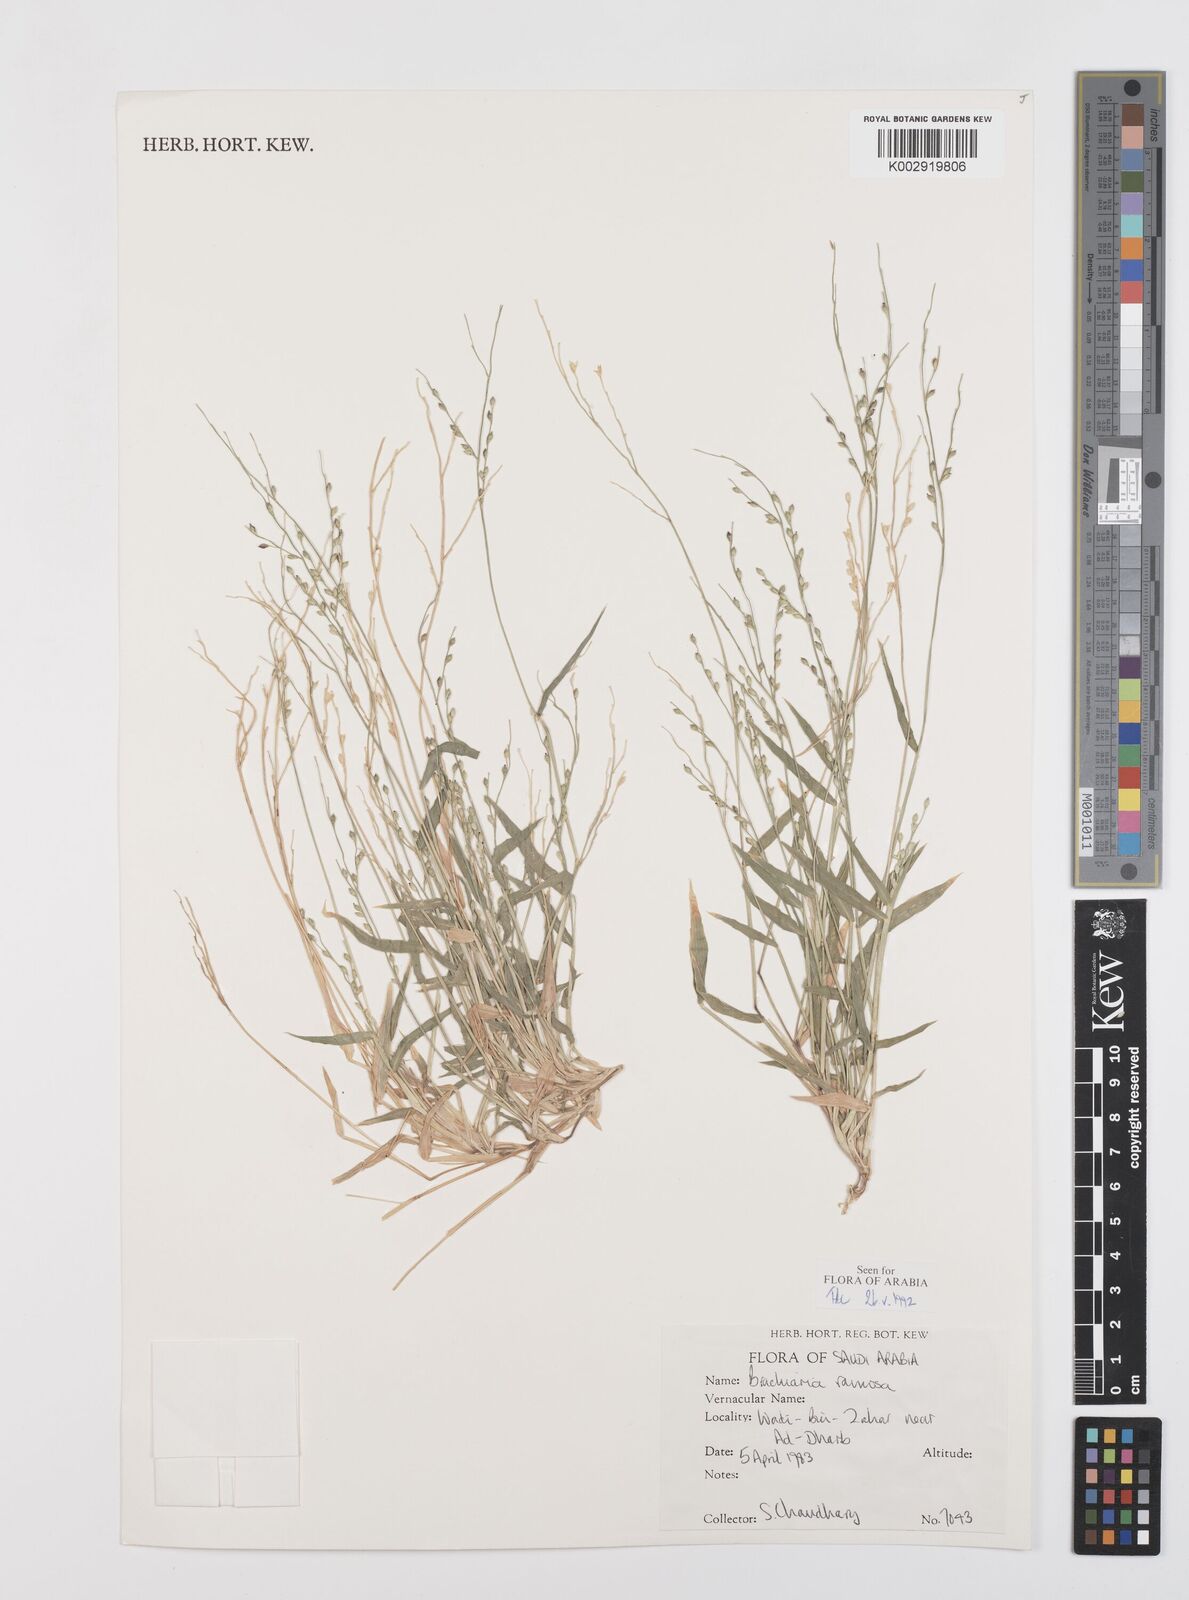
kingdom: Plantae
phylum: Tracheophyta
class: Liliopsida
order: Poales
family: Poaceae
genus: Urochloa
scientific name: Urochloa ramosa
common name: Browntop millet
